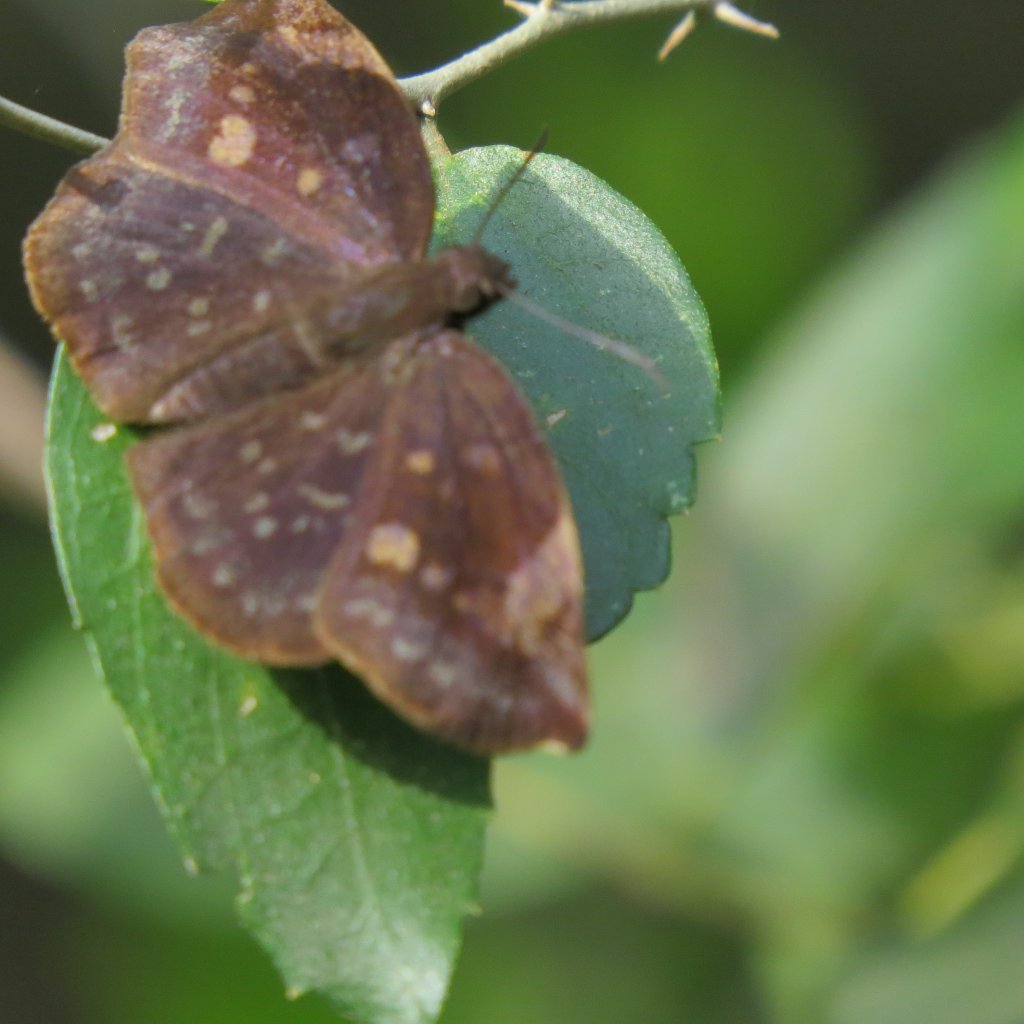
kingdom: Animalia
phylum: Arthropoda
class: Insecta
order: Lepidoptera
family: Hesperiidae
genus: Achlyodes
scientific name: Achlyodes thraso
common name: Sickle-winged Skipper
